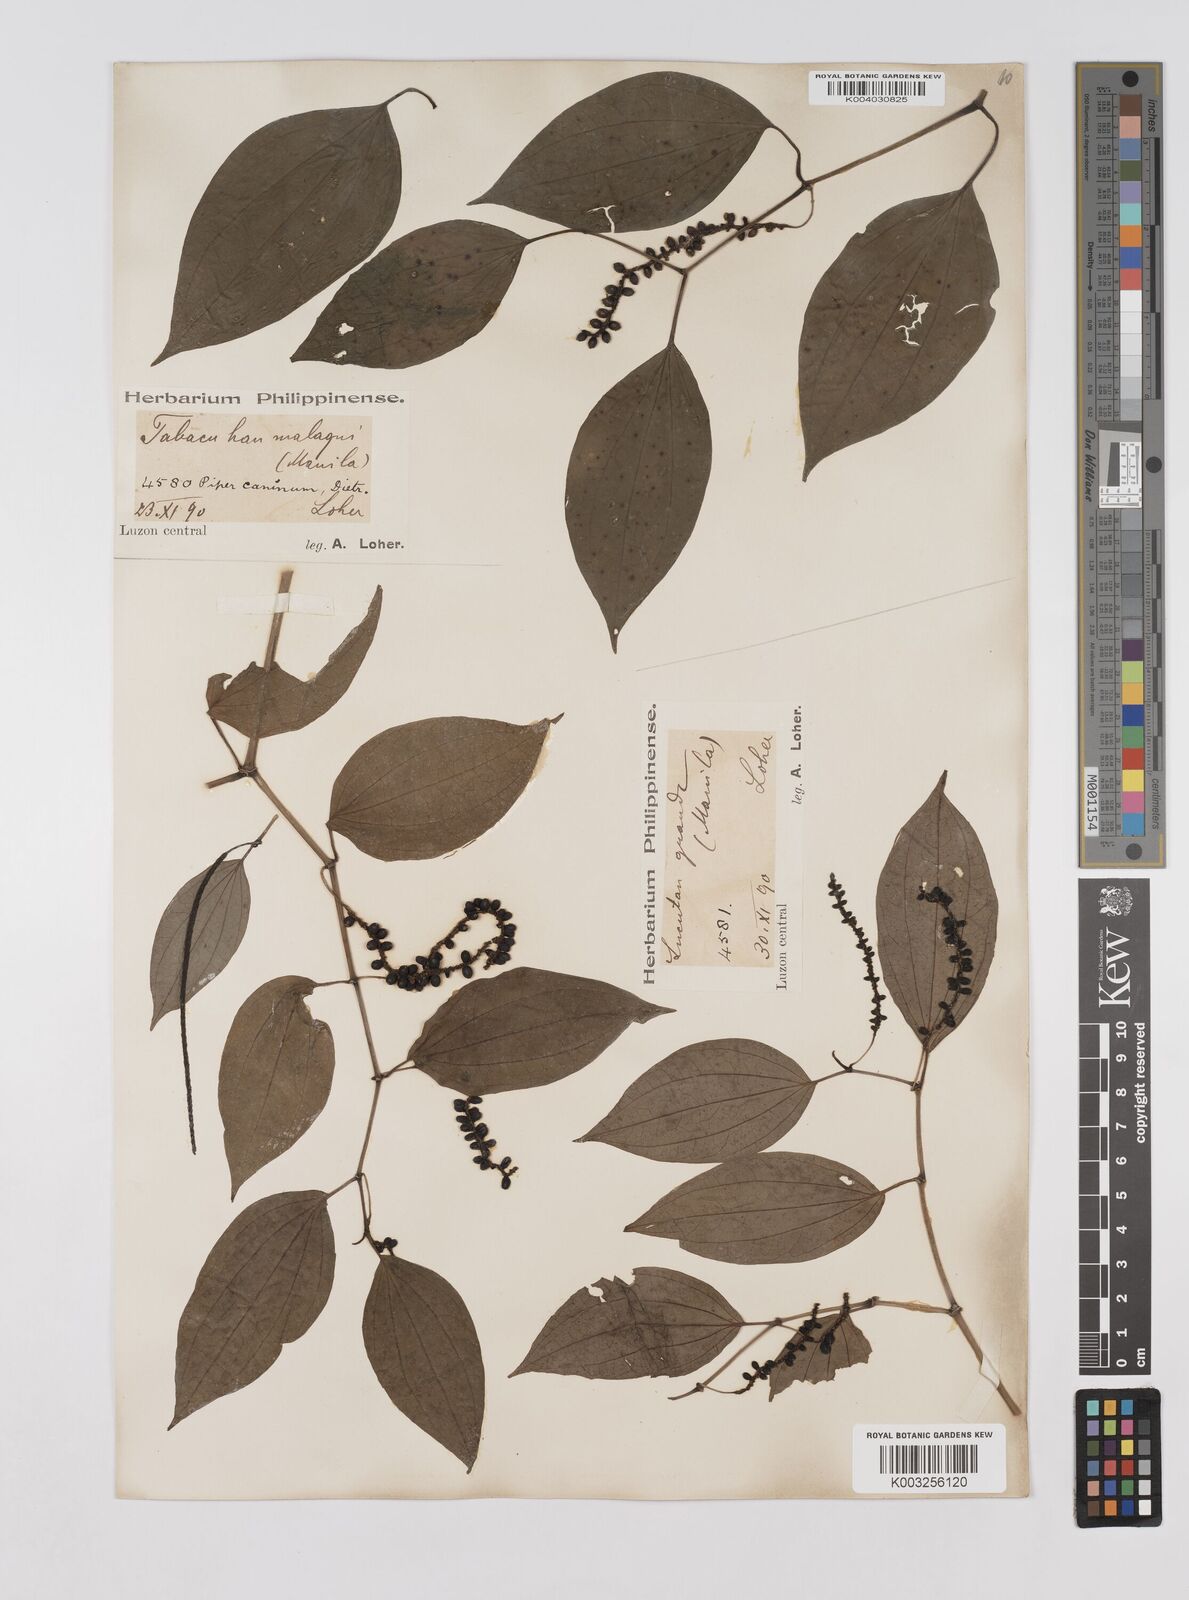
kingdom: Plantae
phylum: Tracheophyta
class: Magnoliopsida
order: Piperales
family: Piperaceae
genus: Piper
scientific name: Piper lanatum
